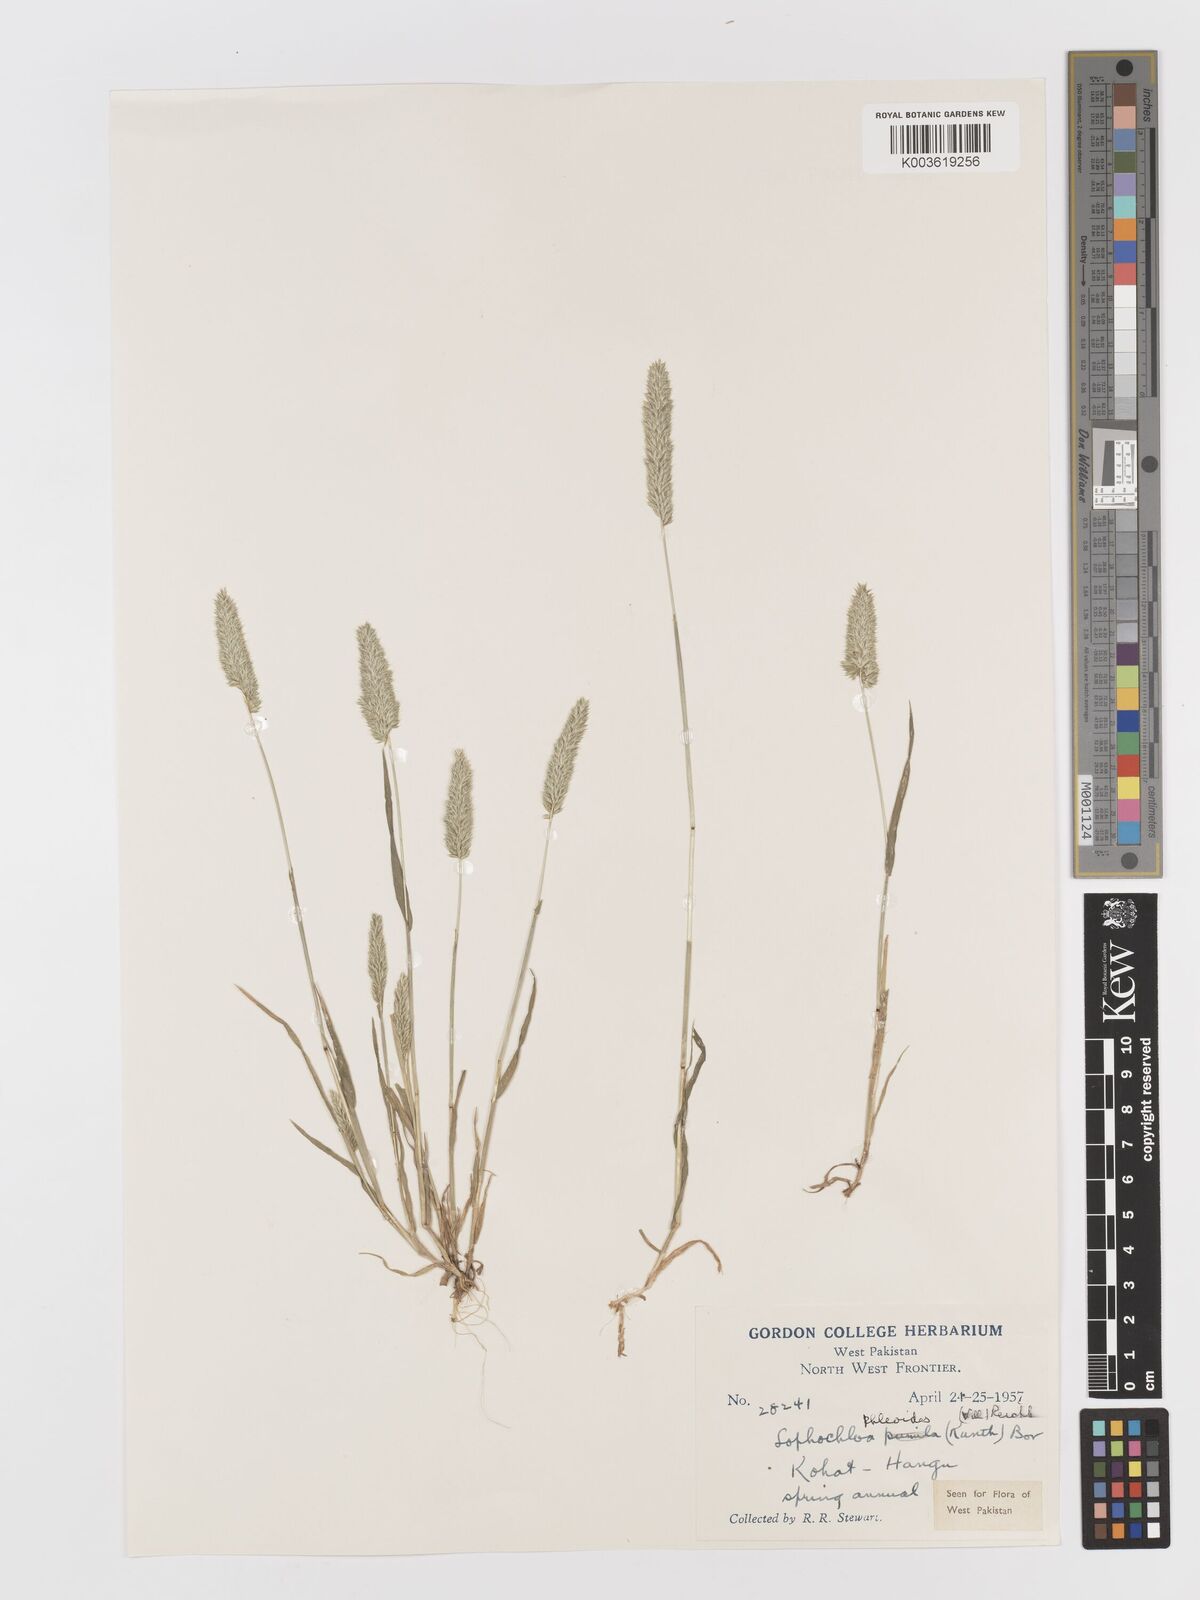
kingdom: Plantae
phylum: Tracheophyta
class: Liliopsida
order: Poales
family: Poaceae
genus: Rostraria
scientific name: Rostraria cristata
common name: Mediterranean hair-grass
